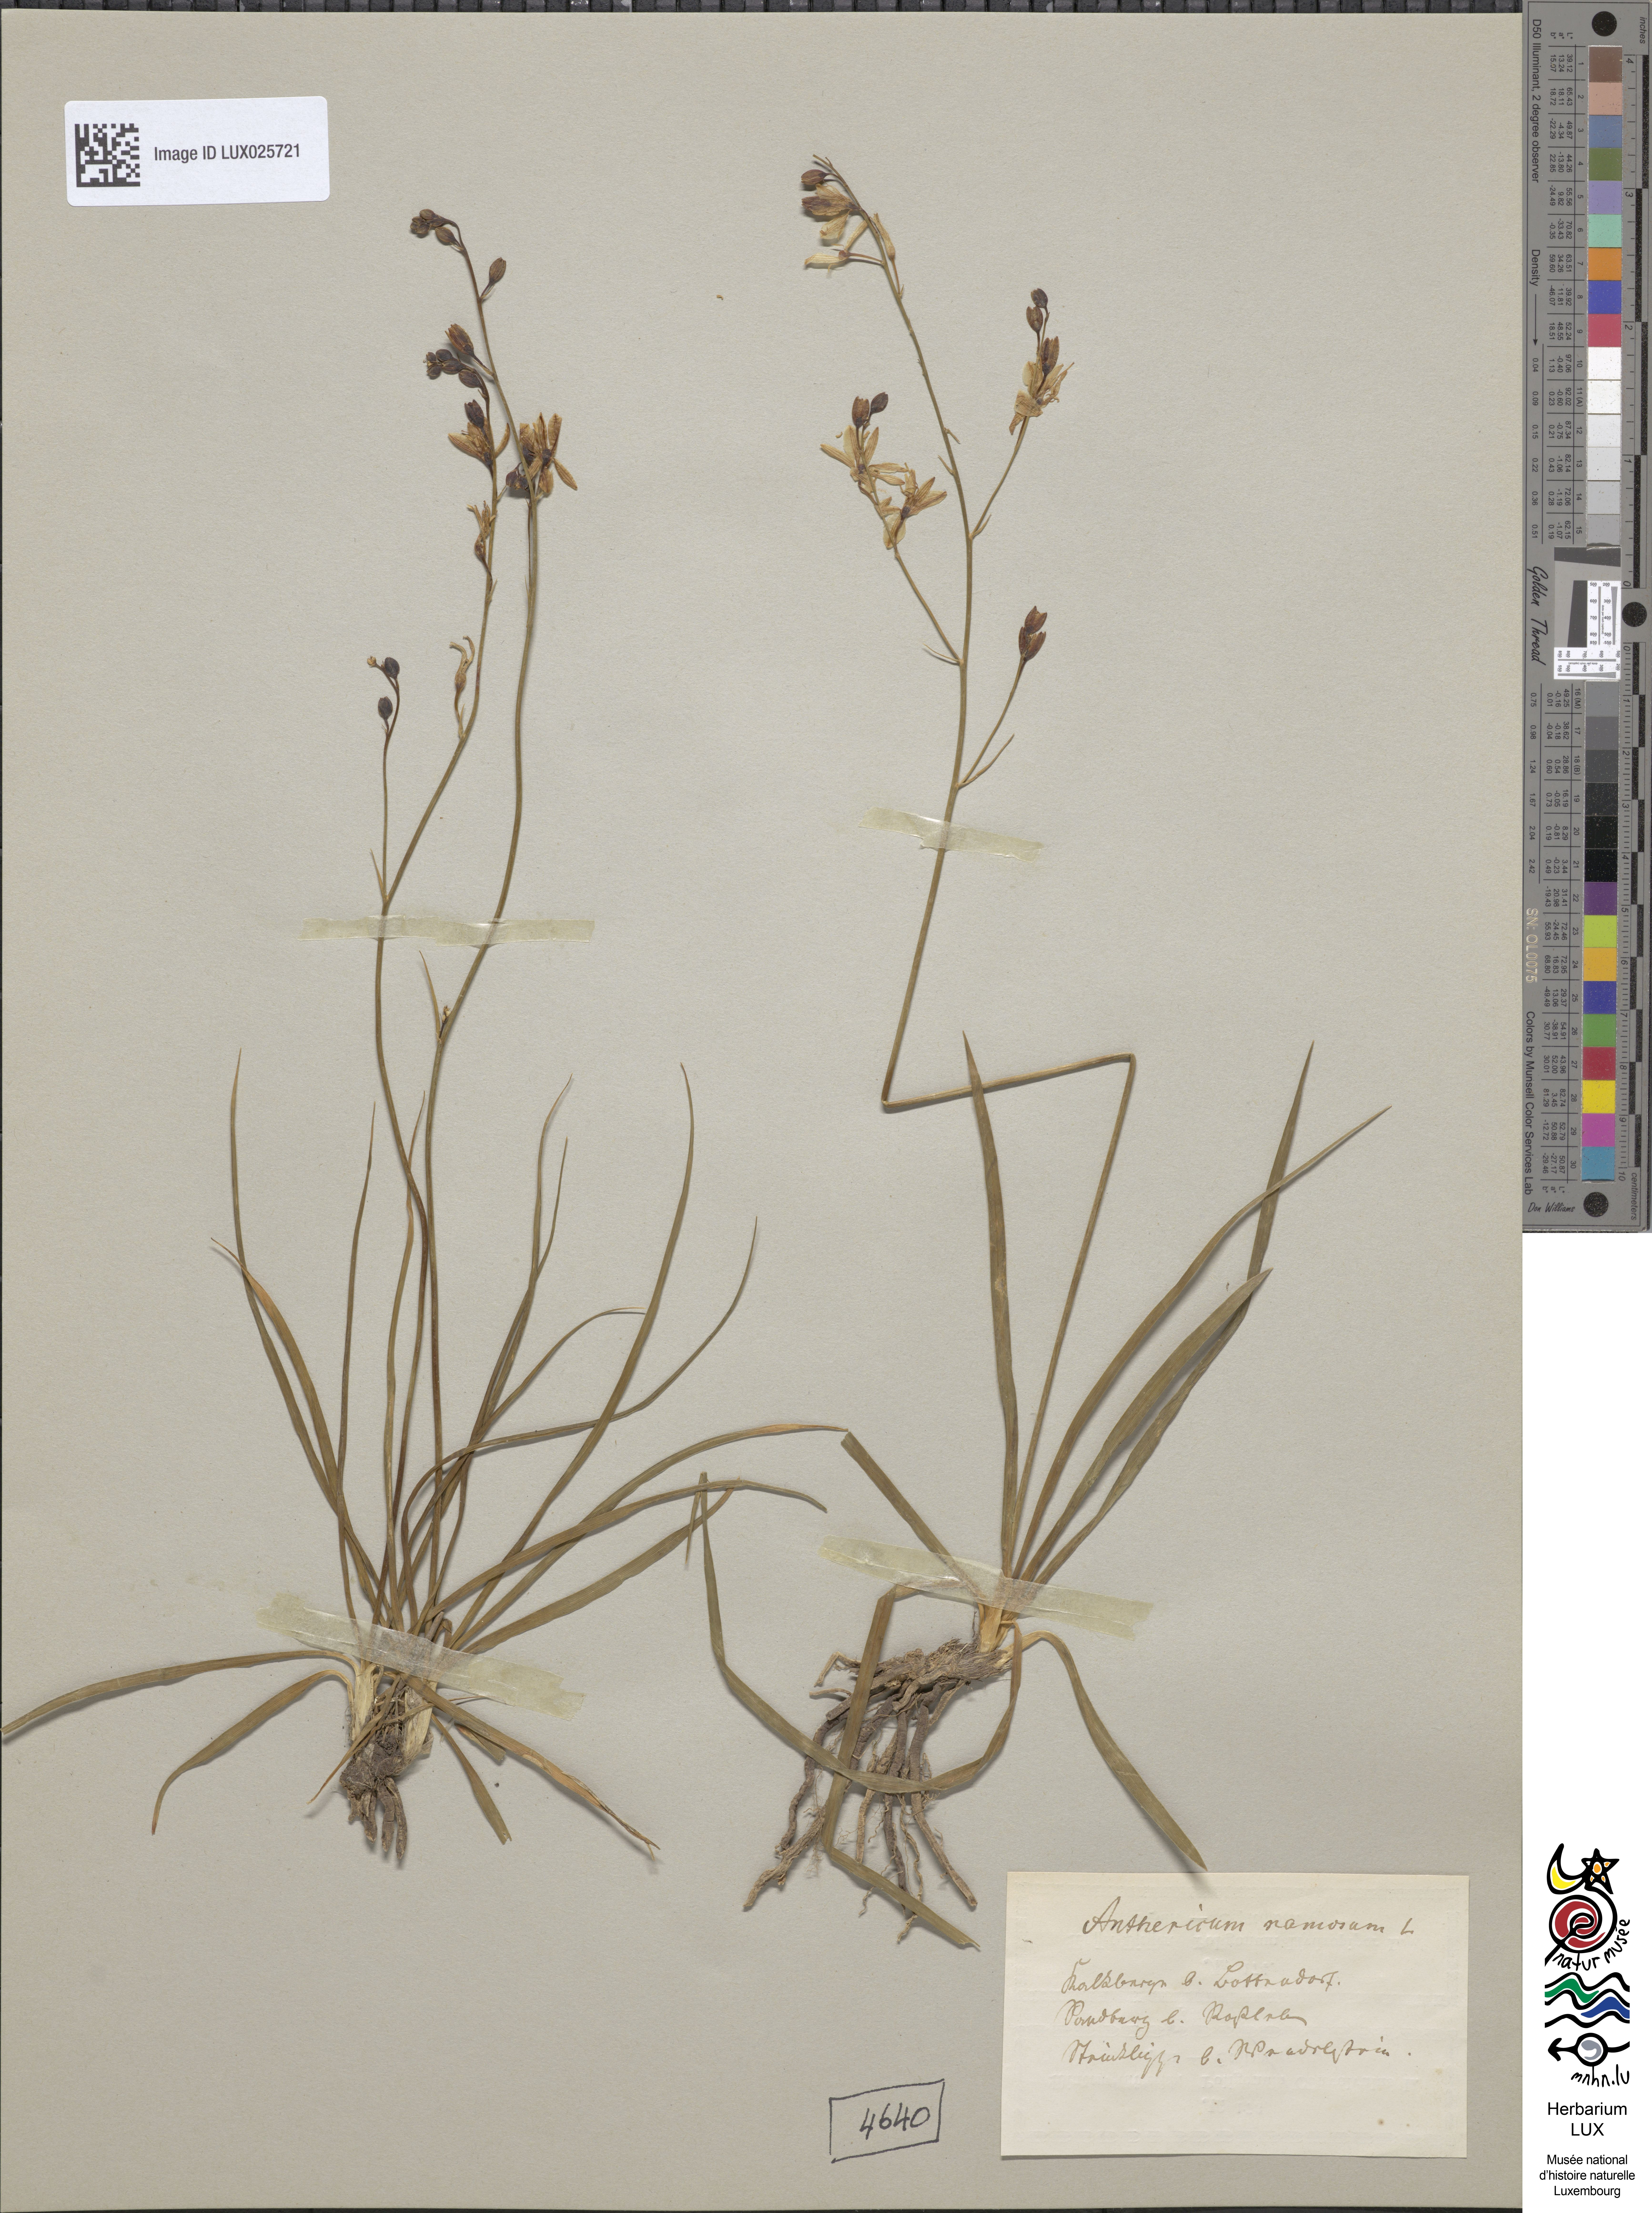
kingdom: Plantae
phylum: Tracheophyta
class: Liliopsida
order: Asparagales
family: Asparagaceae
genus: Anthericum
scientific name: Anthericum ramosum
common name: Branched st. bernard's-lily
